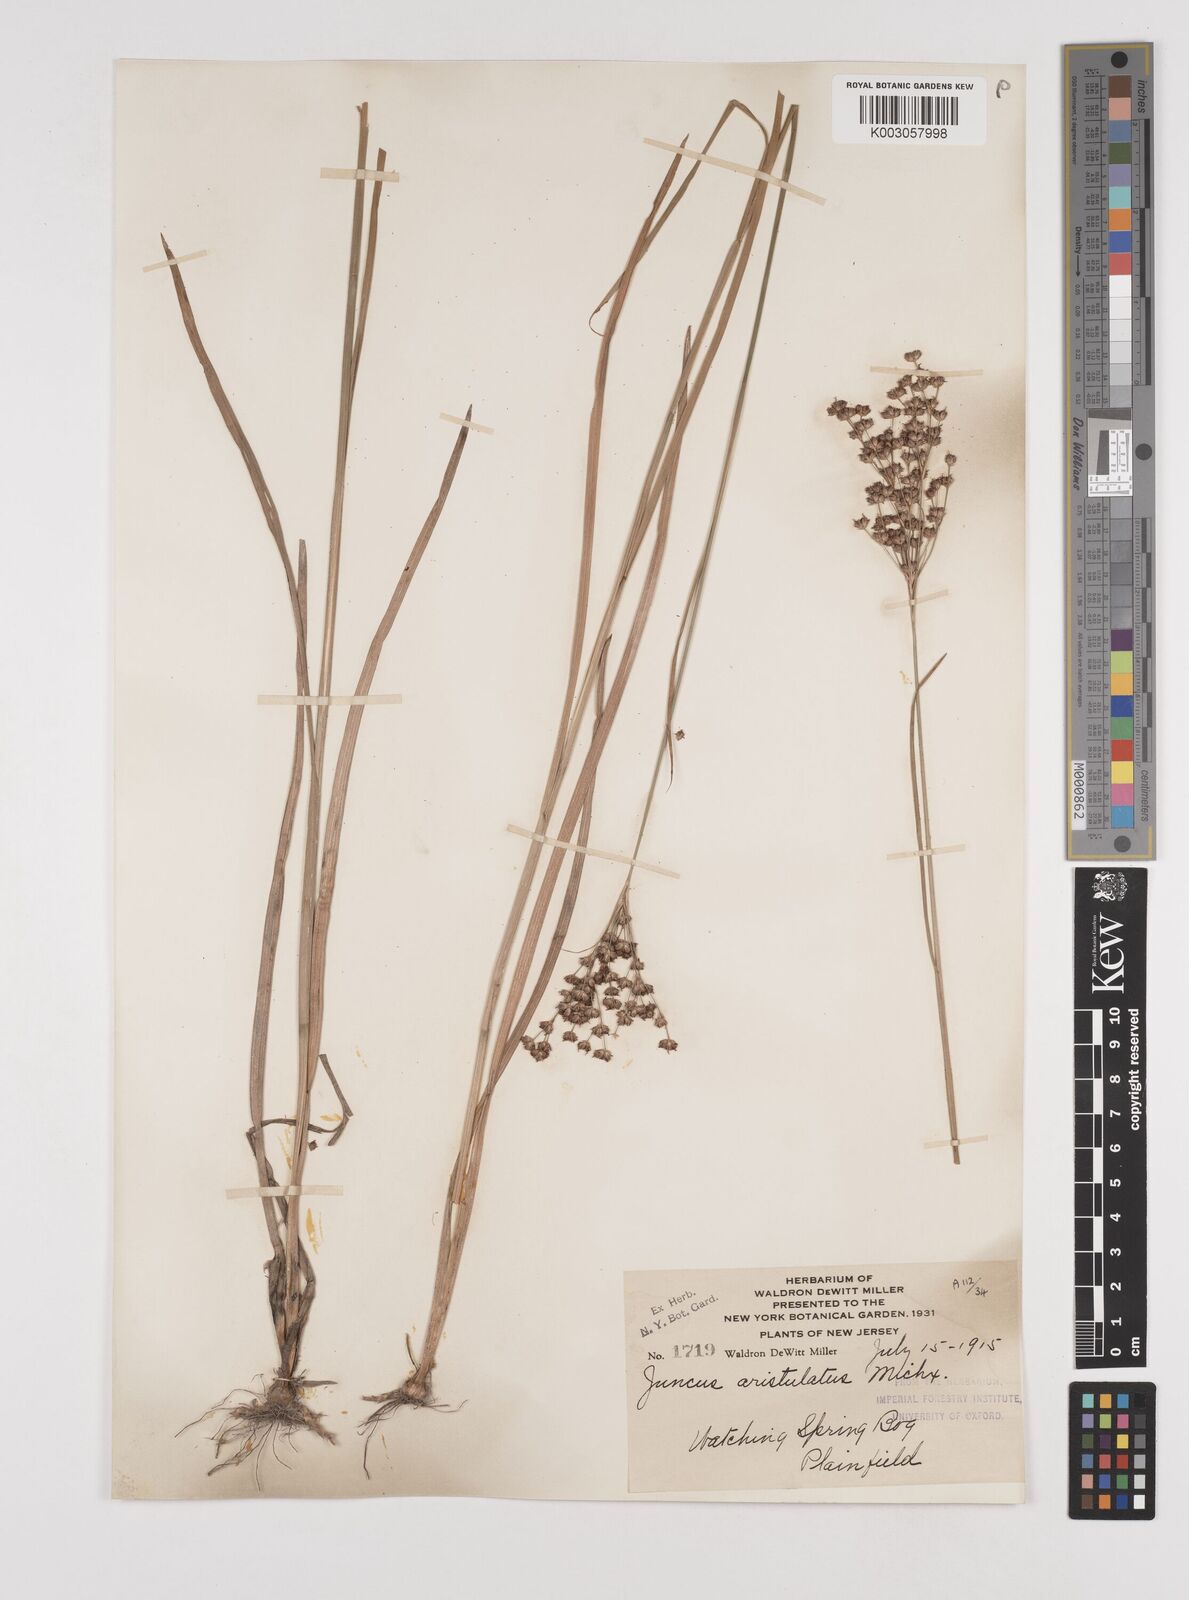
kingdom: Plantae
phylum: Tracheophyta
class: Liliopsida
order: Poales
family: Juncaceae
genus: Juncus
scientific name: Juncus marginatus
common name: Grass-leaf rush
